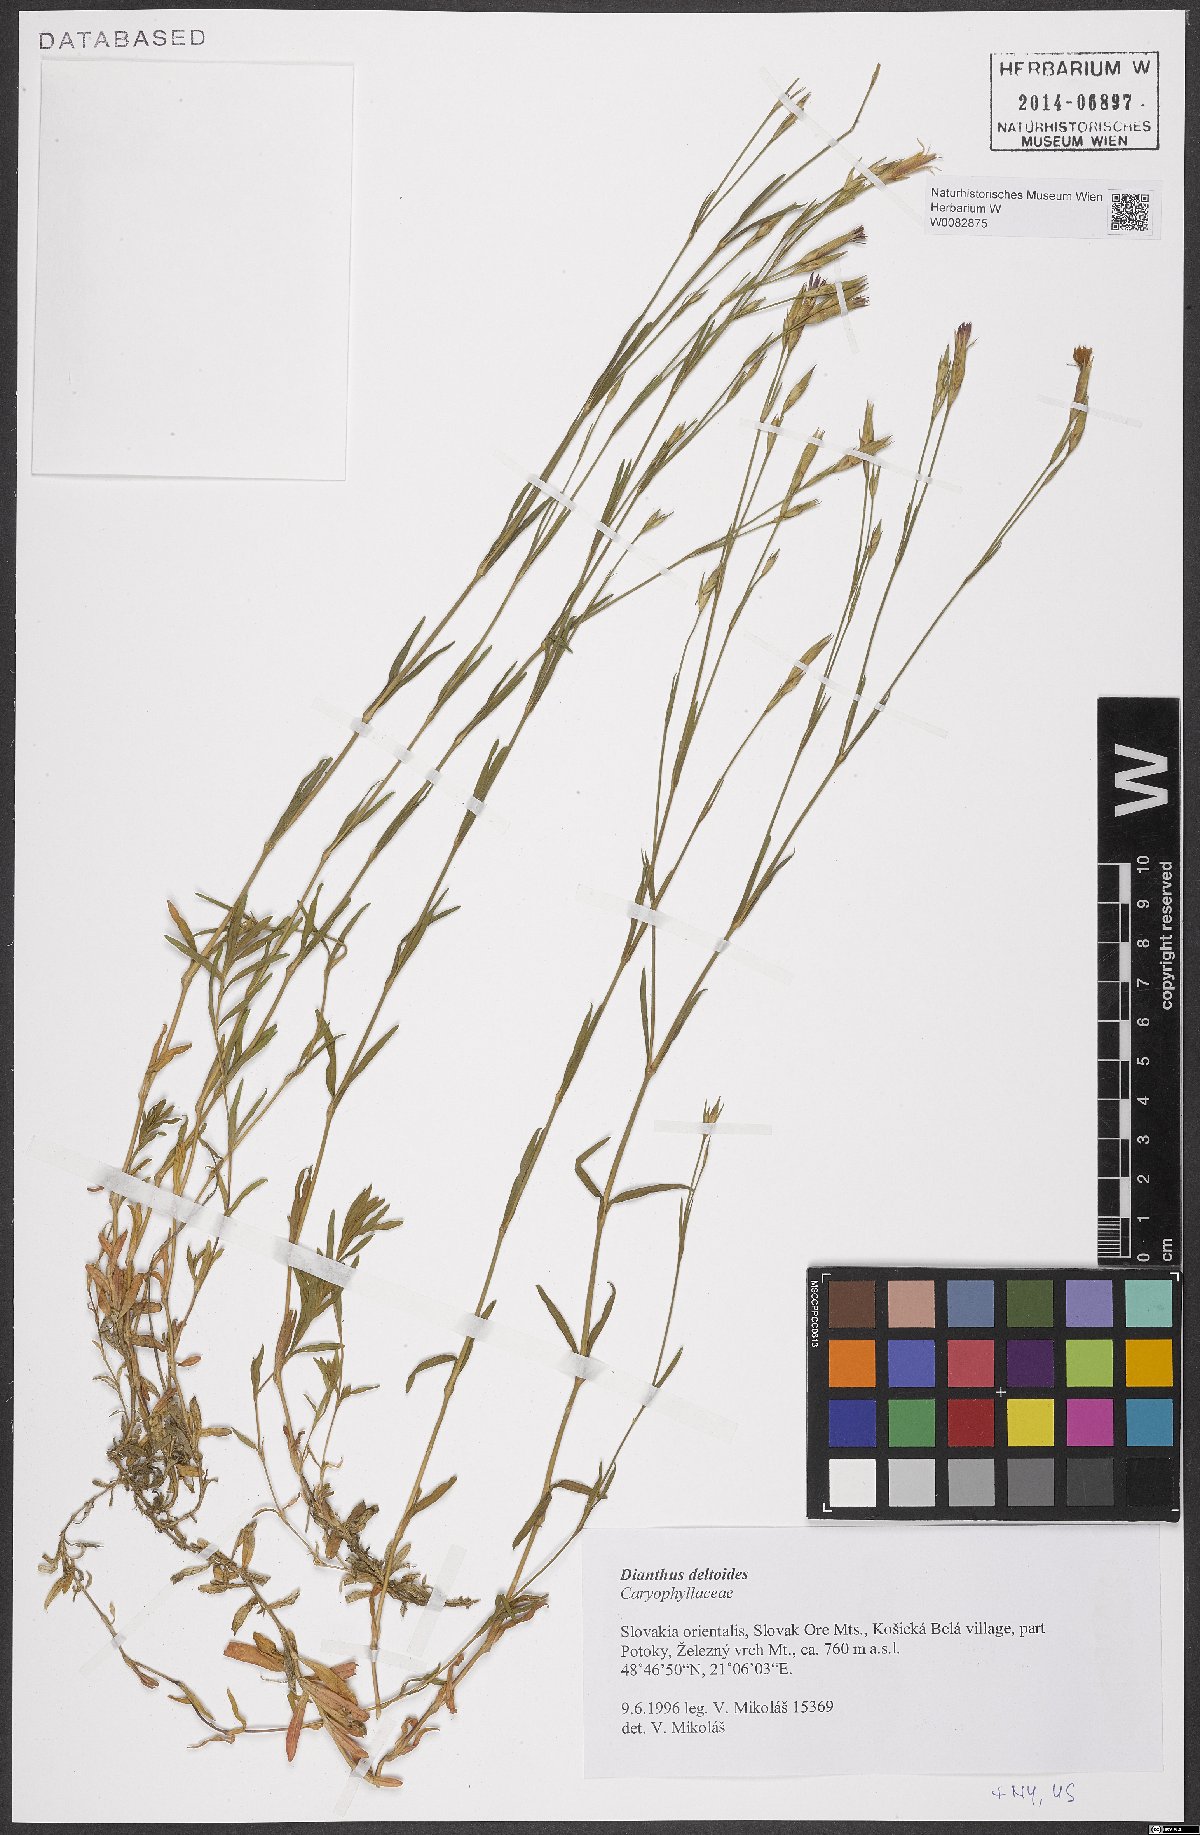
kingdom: Plantae
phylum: Tracheophyta
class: Magnoliopsida
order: Caryophyllales
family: Caryophyllaceae
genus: Dianthus
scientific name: Dianthus deltoides
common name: Maiden pink
